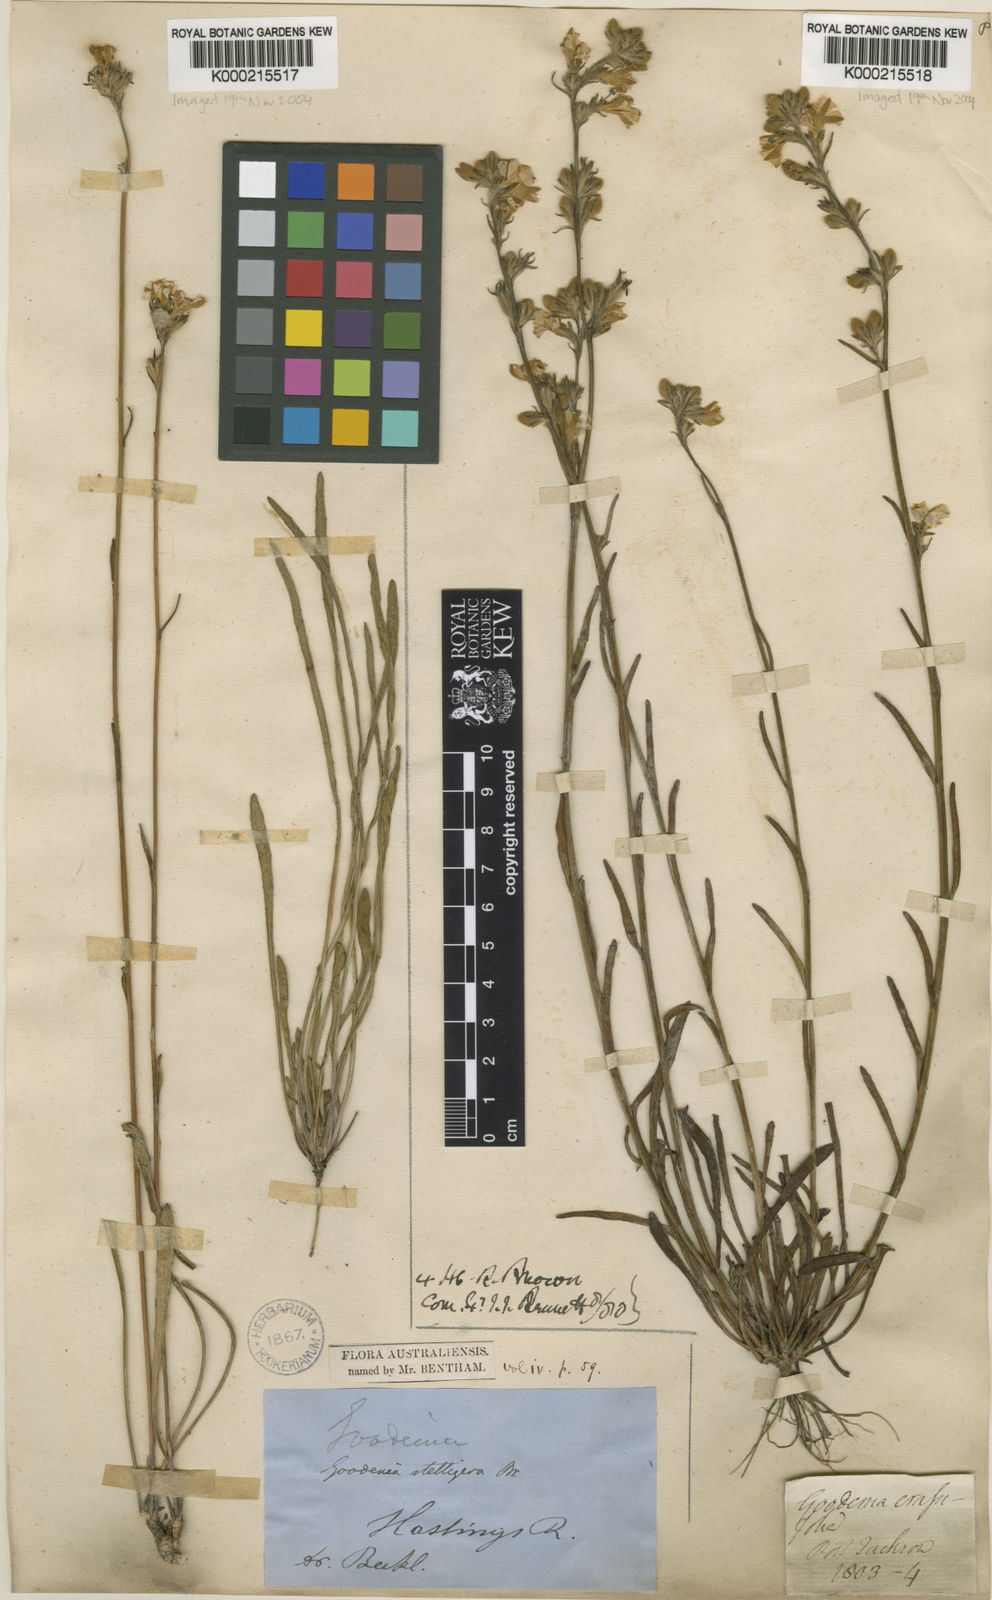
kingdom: Plantae
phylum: Tracheophyta
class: Magnoliopsida
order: Asterales
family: Goodeniaceae
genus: Goodenia
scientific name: Goodenia stelligera
